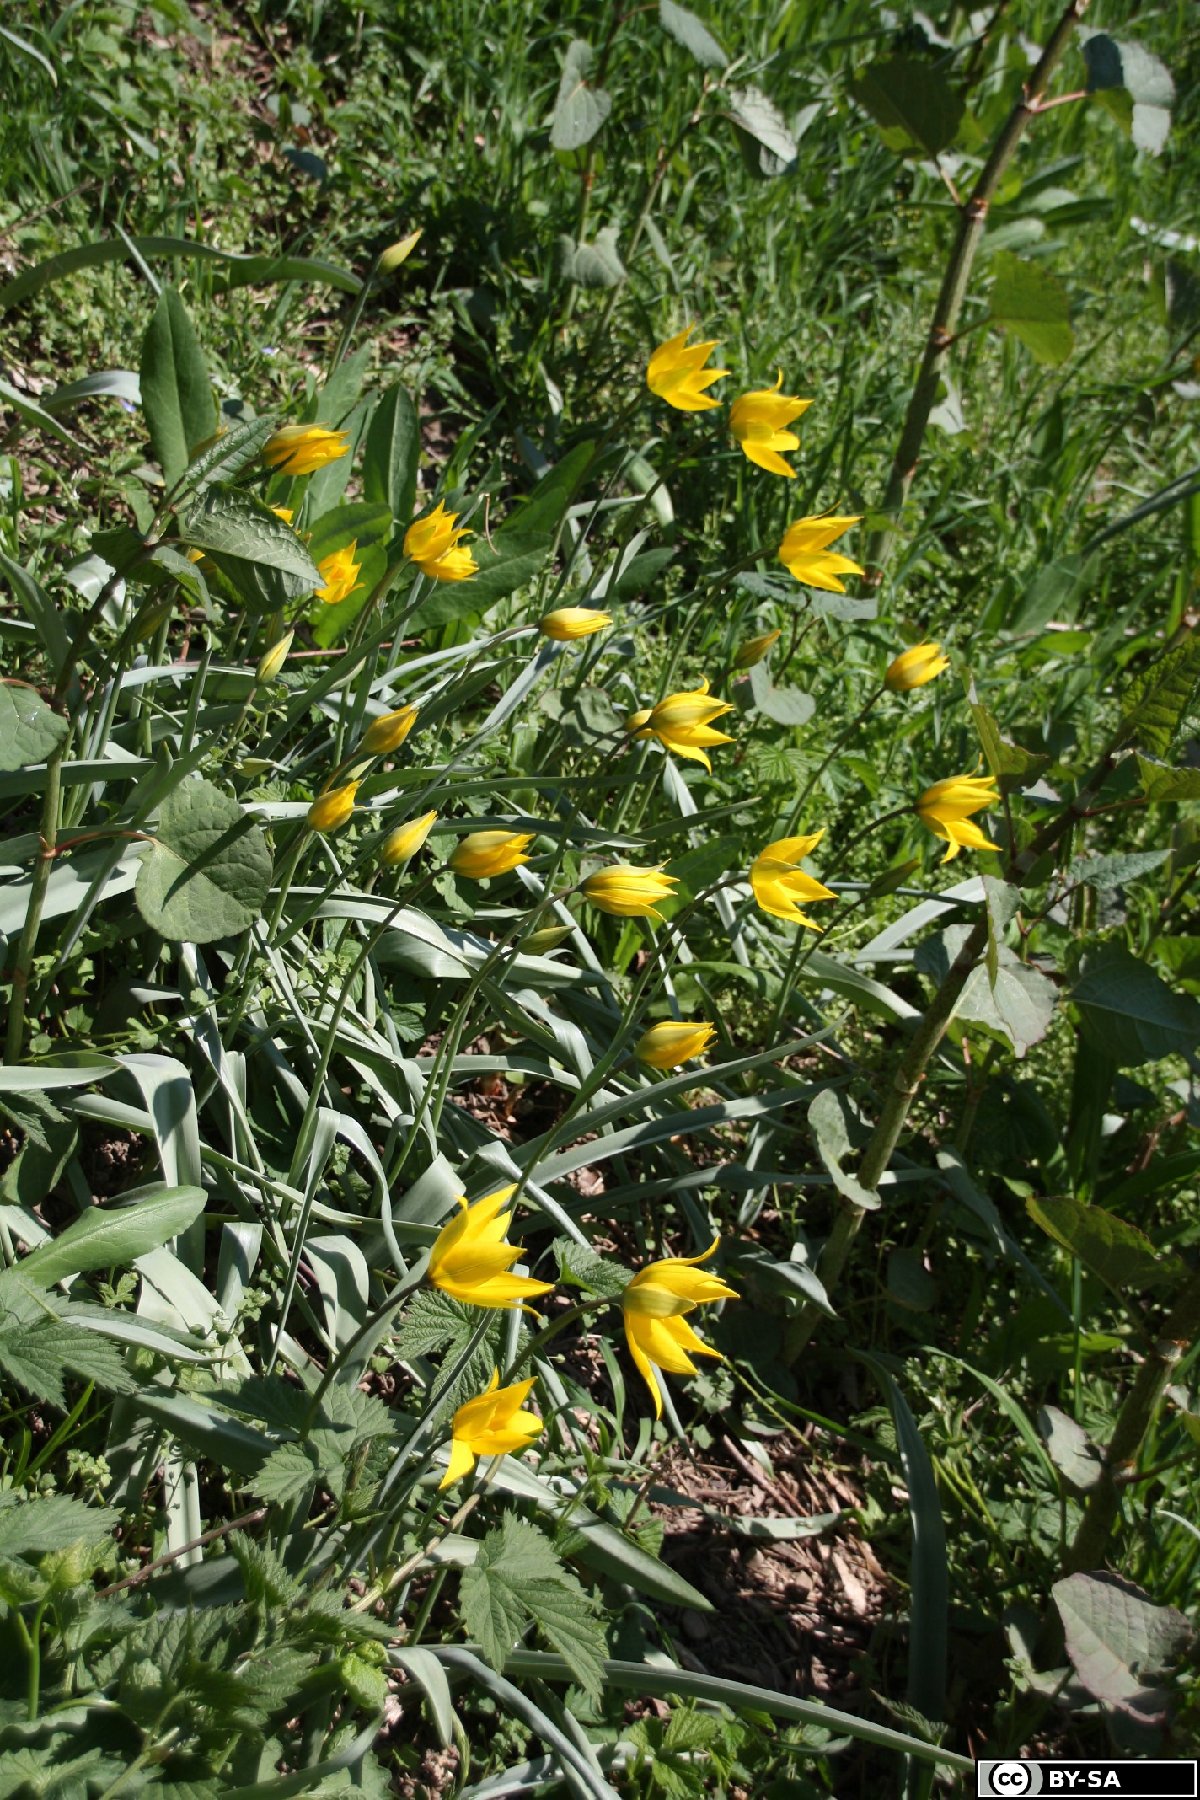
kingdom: Plantae
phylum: Tracheophyta
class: Liliopsida
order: Liliales
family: Liliaceae
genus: Tulipa
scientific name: Tulipa sylvestris
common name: Wild tulip
